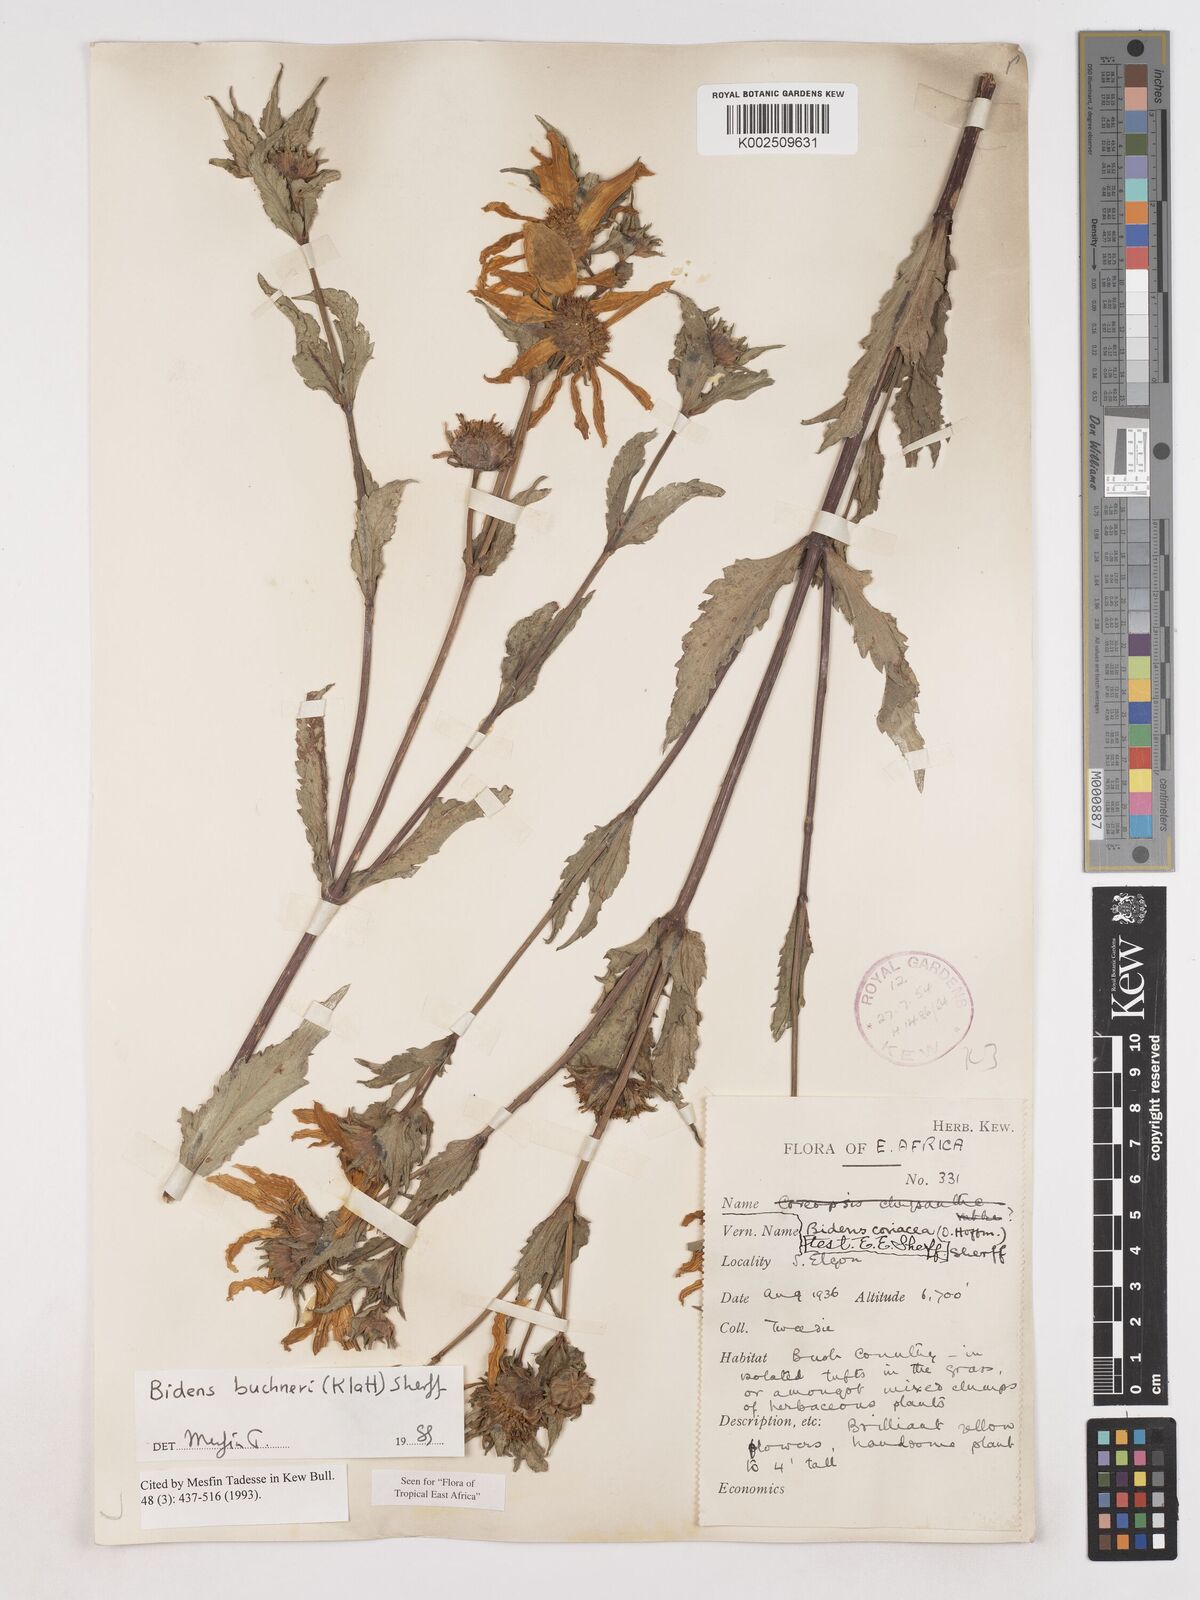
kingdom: Plantae
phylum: Tracheophyta
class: Magnoliopsida
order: Asterales
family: Asteraceae
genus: Bidens
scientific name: Bidens buchneri
